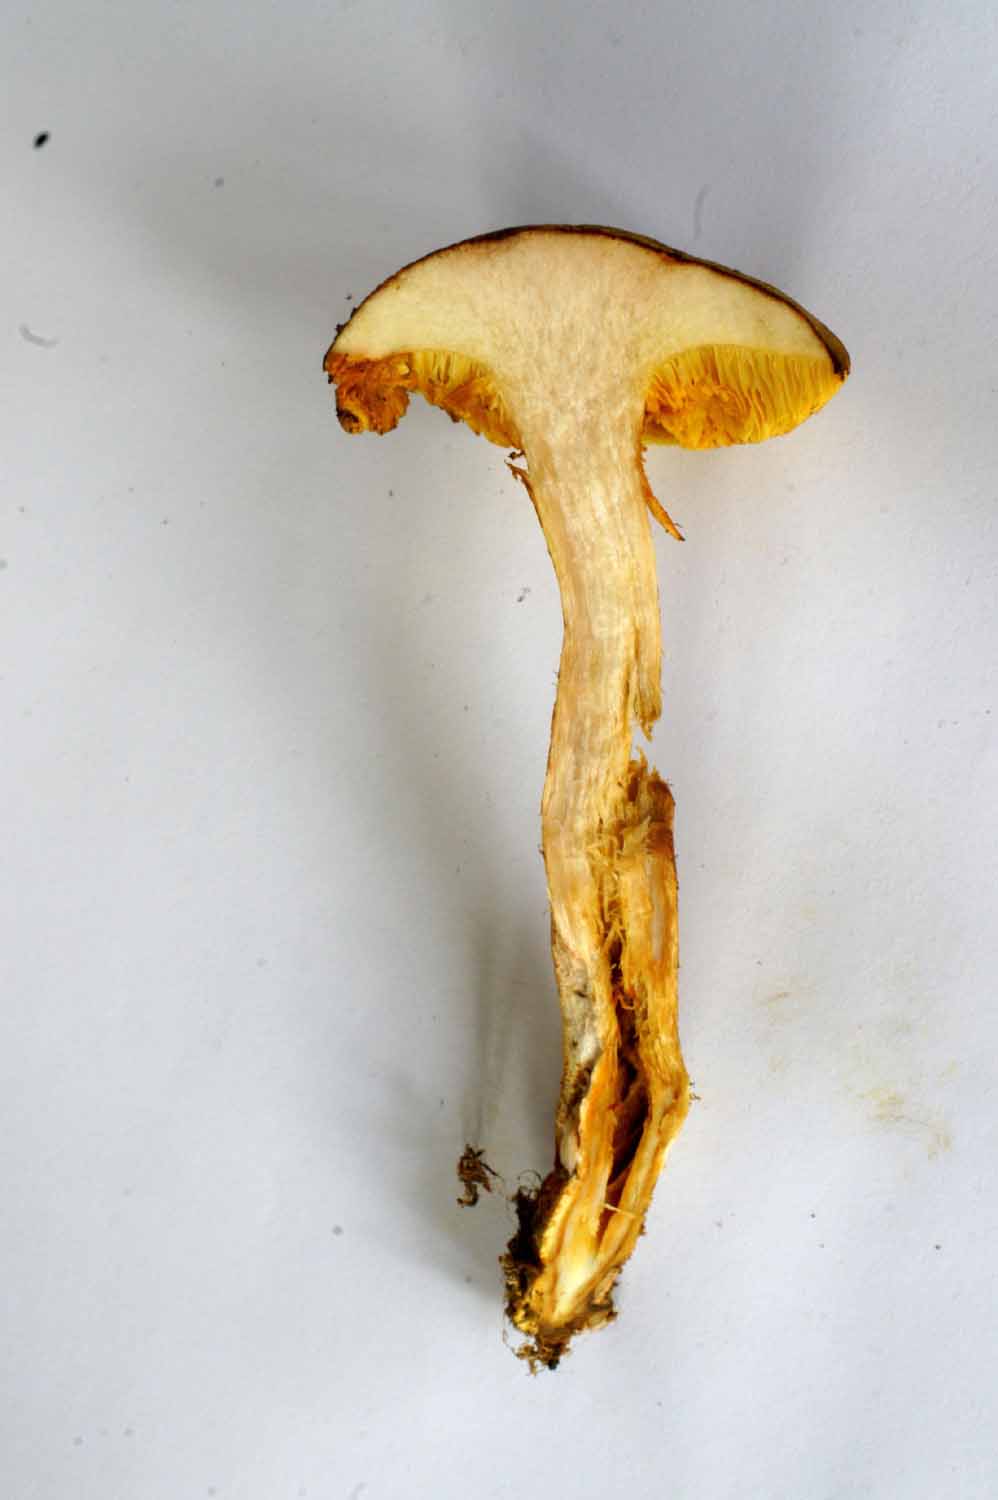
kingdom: Fungi
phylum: Basidiomycota
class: Agaricomycetes
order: Boletales
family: Boletaceae
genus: Xerocomus
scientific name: Xerocomus ferrugineus
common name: vaskeskinds-rørhat
